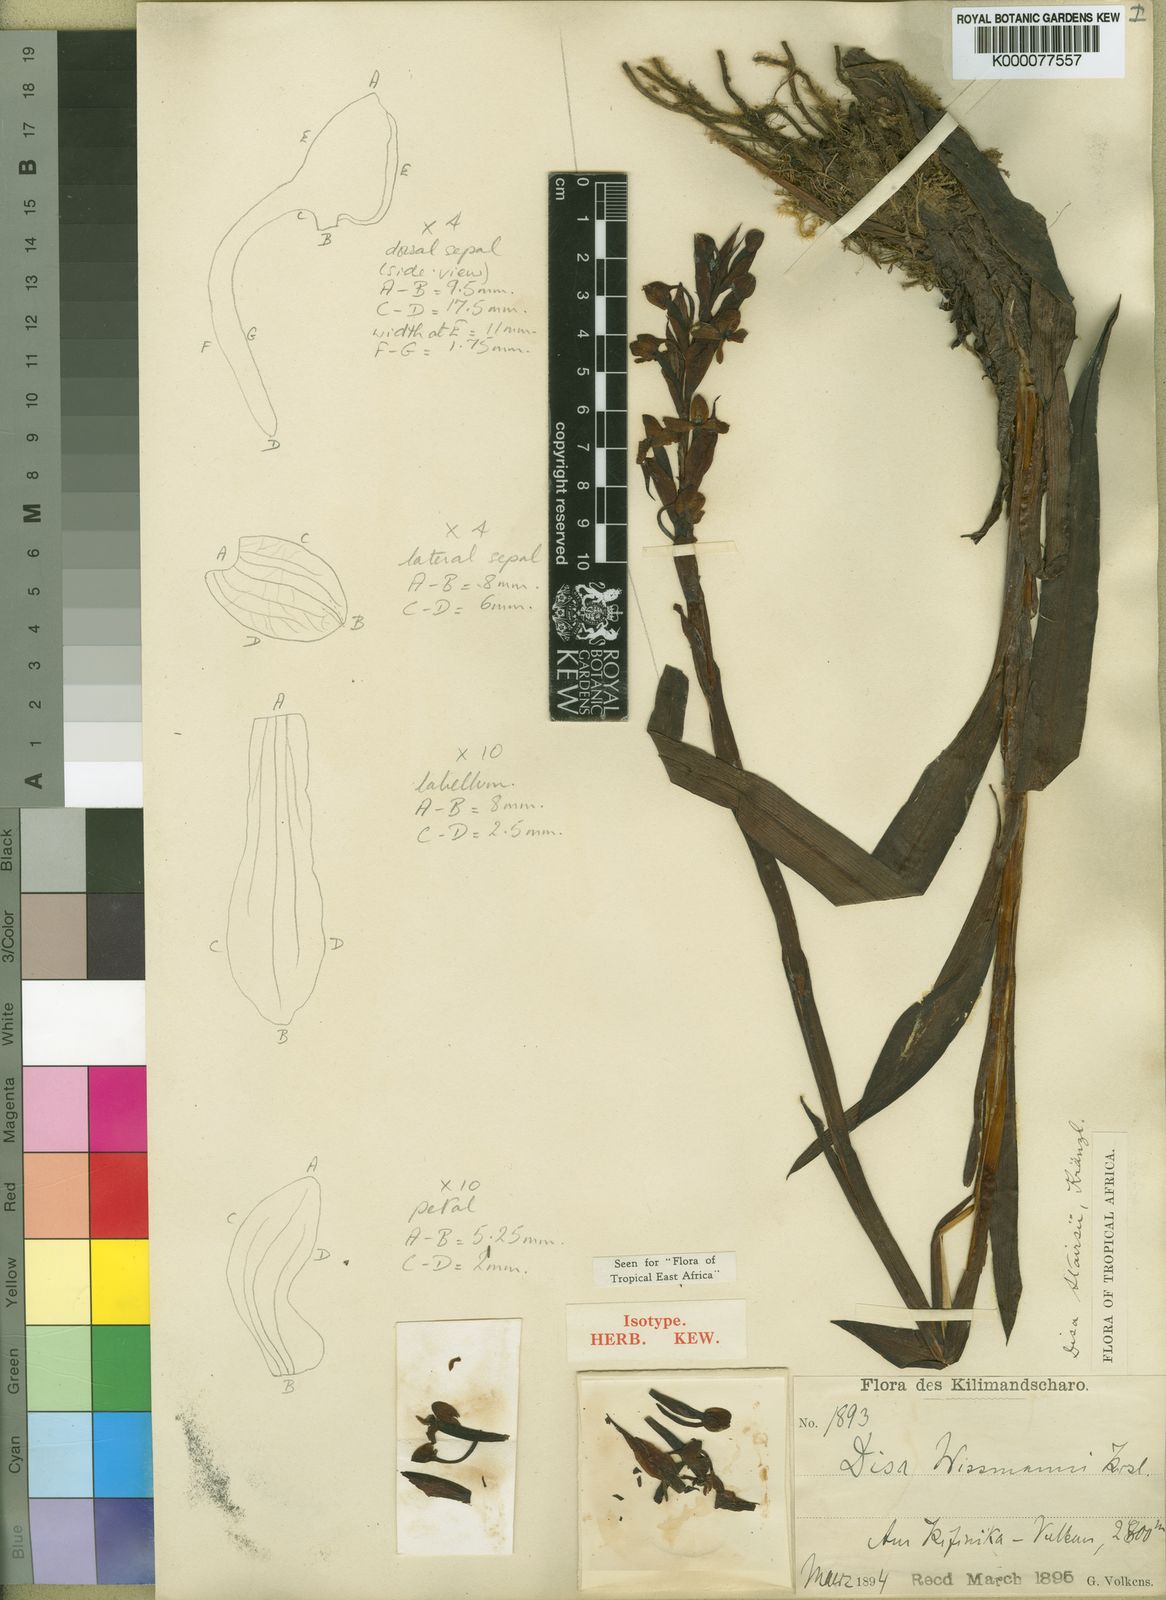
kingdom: Plantae
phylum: Tracheophyta
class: Liliopsida
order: Asparagales
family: Orchidaceae
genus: Disa
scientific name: Disa stairsii
